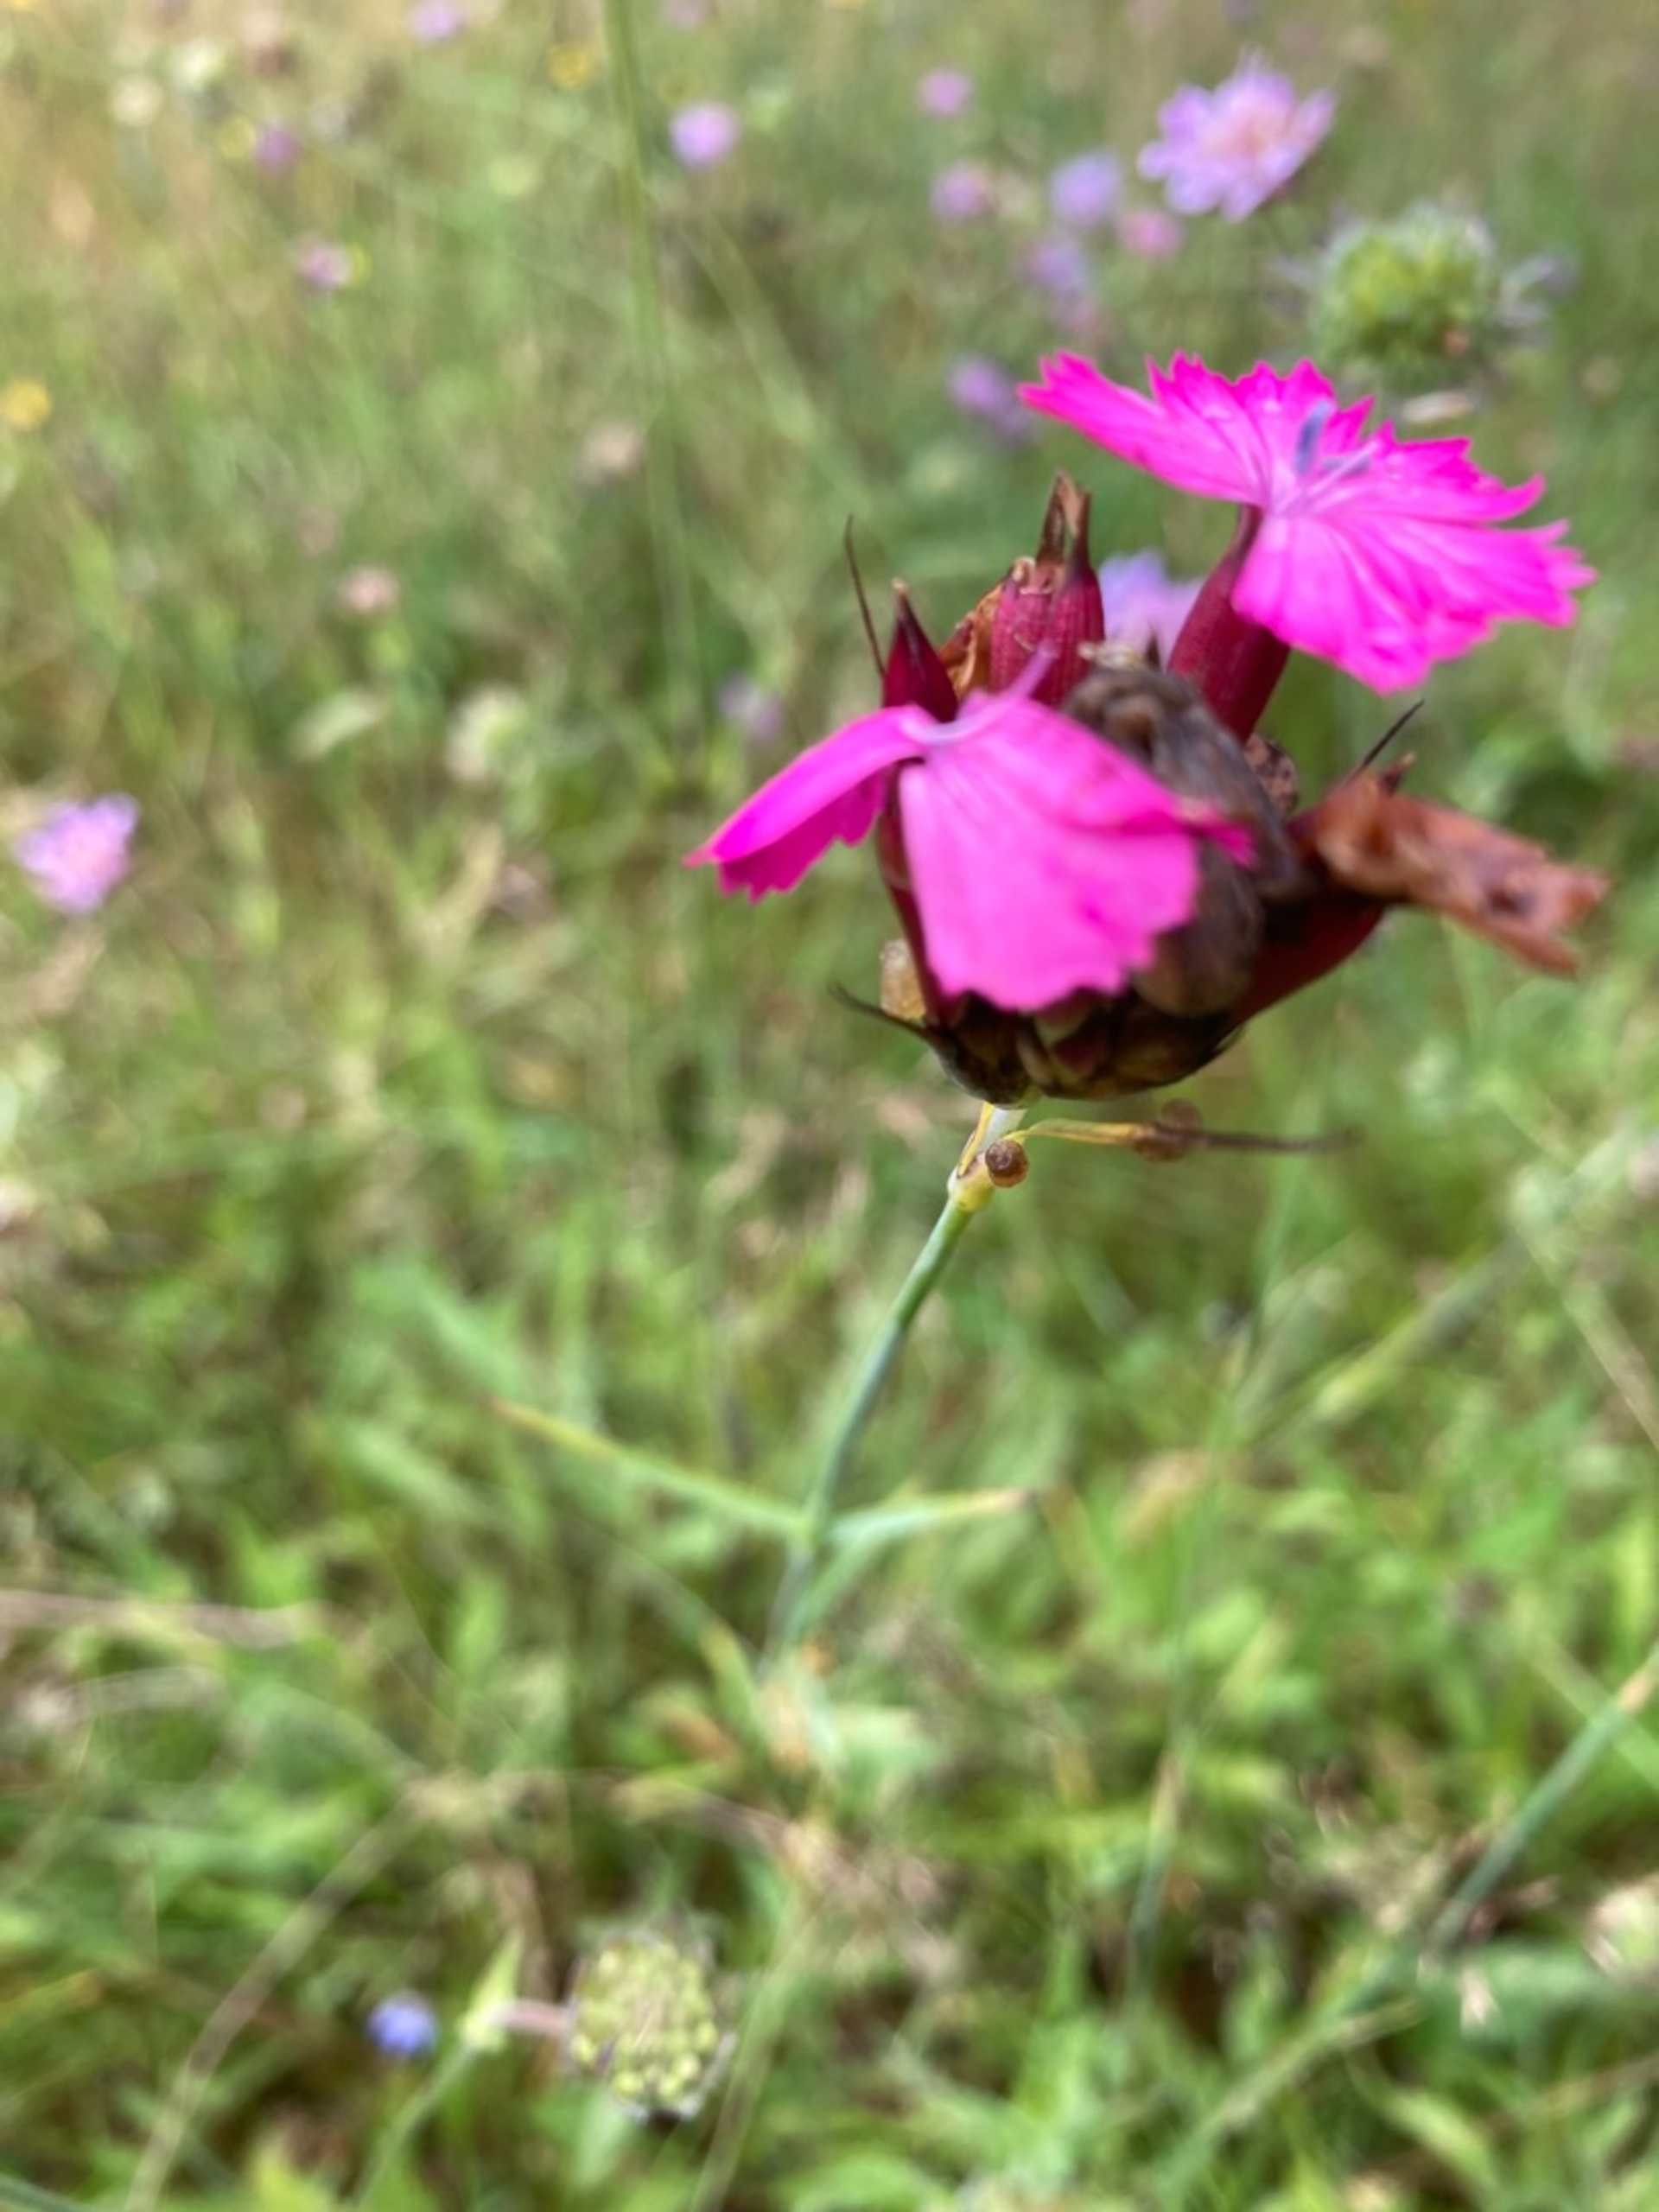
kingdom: Plantae
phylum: Tracheophyta
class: Magnoliopsida
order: Caryophyllales
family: Caryophyllaceae
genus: Dianthus
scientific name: Dianthus carthusianorum
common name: Karteuser-nellike
